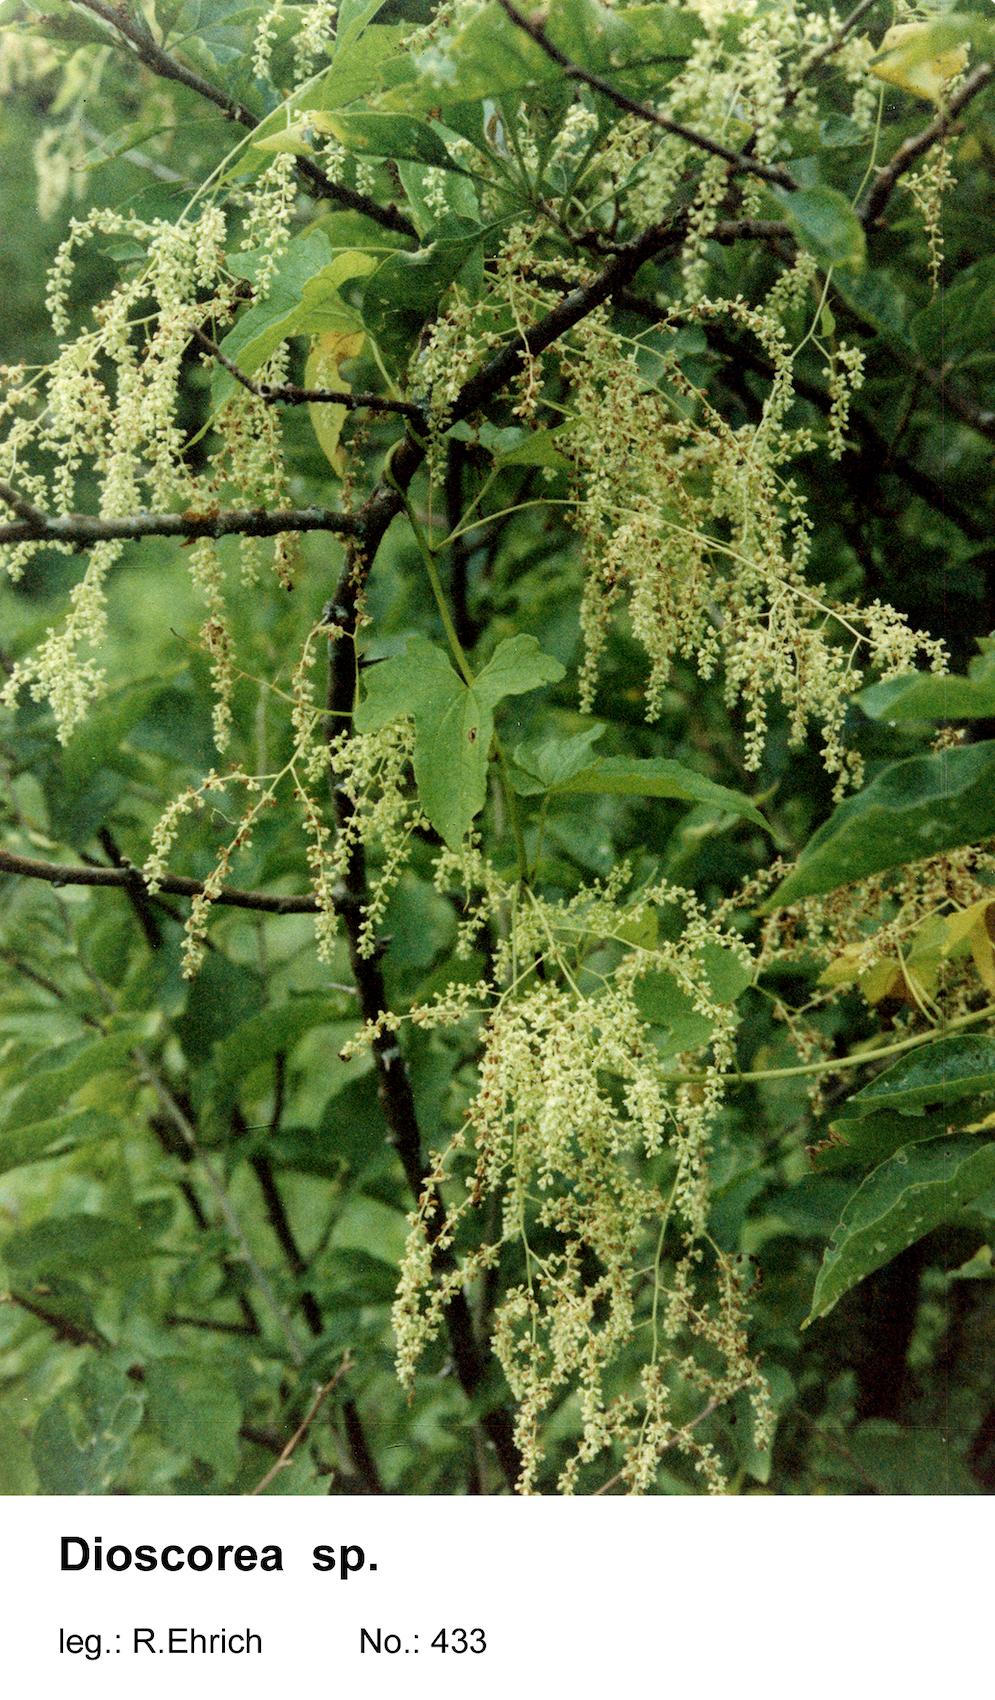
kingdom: Plantae
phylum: Tracheophyta
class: Liliopsida
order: Dioscoreales
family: Dioscoreaceae
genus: Dioscorea
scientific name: Dioscorea sinuata
